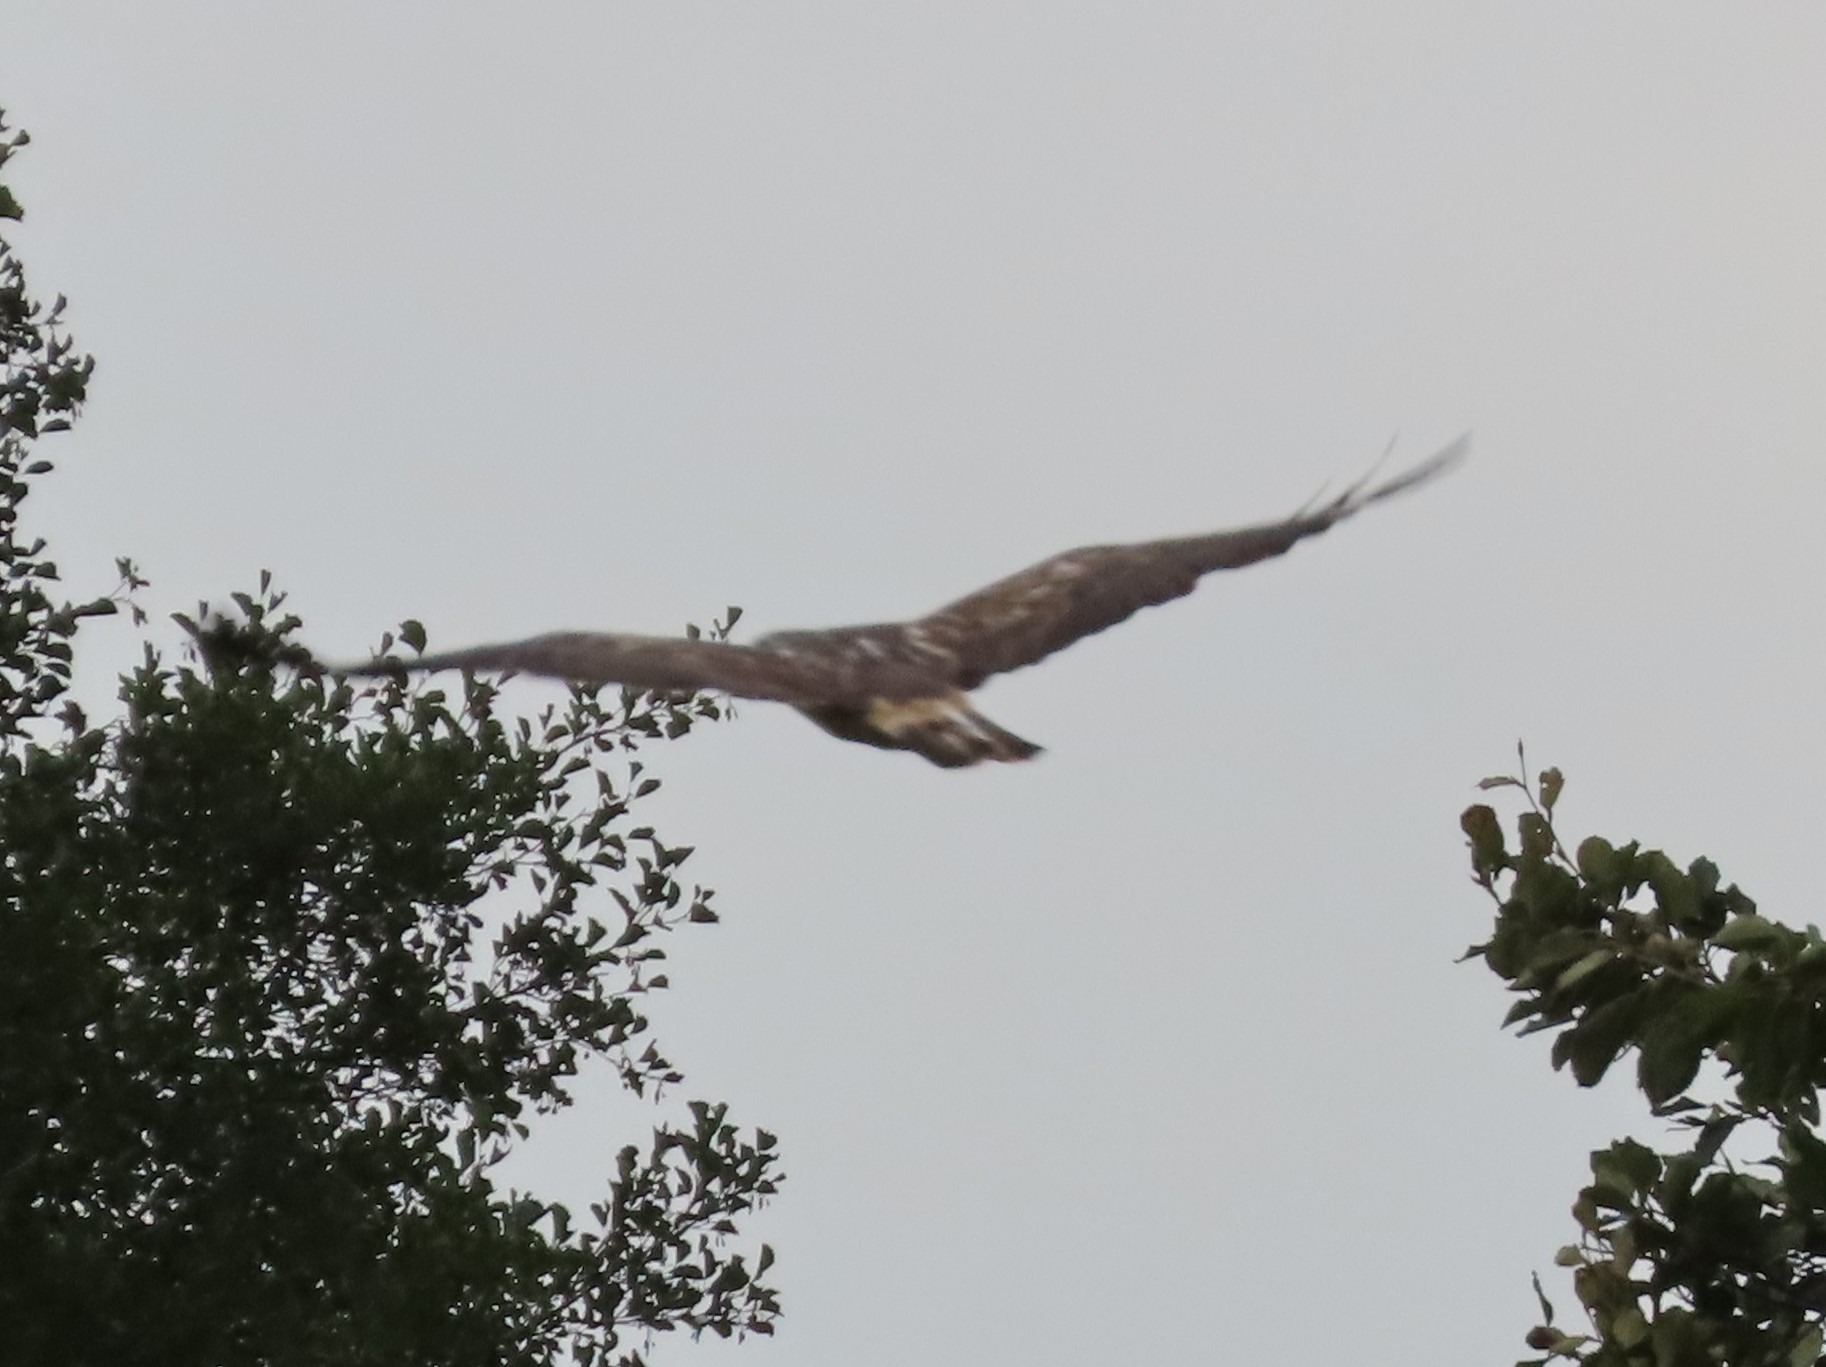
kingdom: Animalia
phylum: Chordata
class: Aves
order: Accipitriformes
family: Accipitridae
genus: Buteo
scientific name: Buteo buteo
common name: Musvåge
